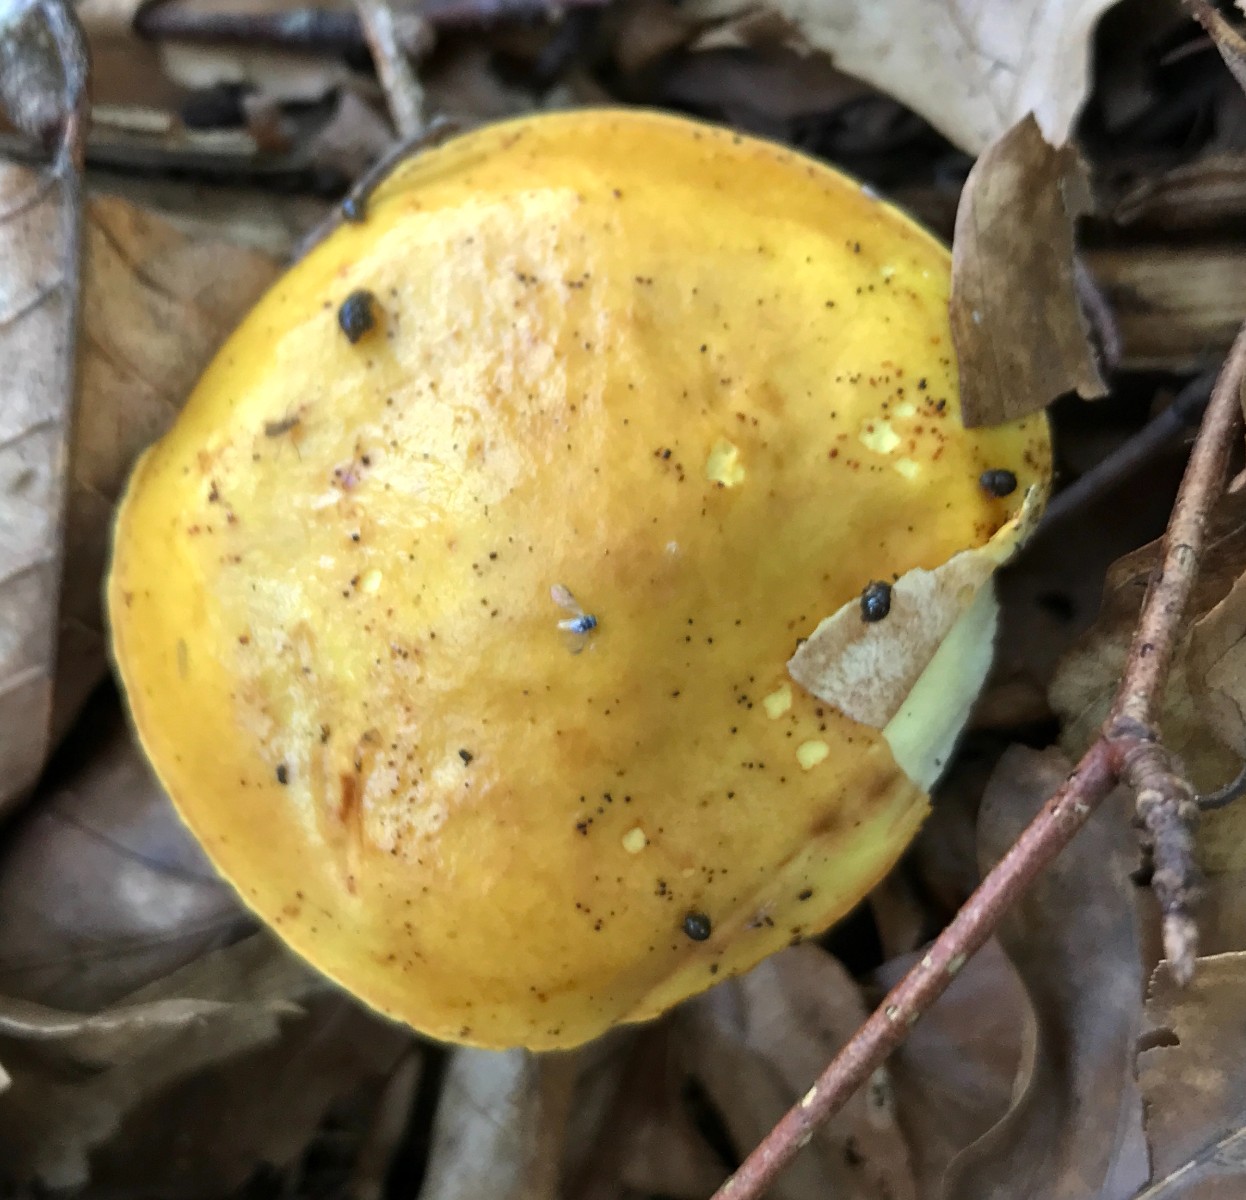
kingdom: Fungi
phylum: Basidiomycota
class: Agaricomycetes
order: Boletales
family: Suillaceae
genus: Suillus
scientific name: Suillus grevillei
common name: lærke-slimrørhat
